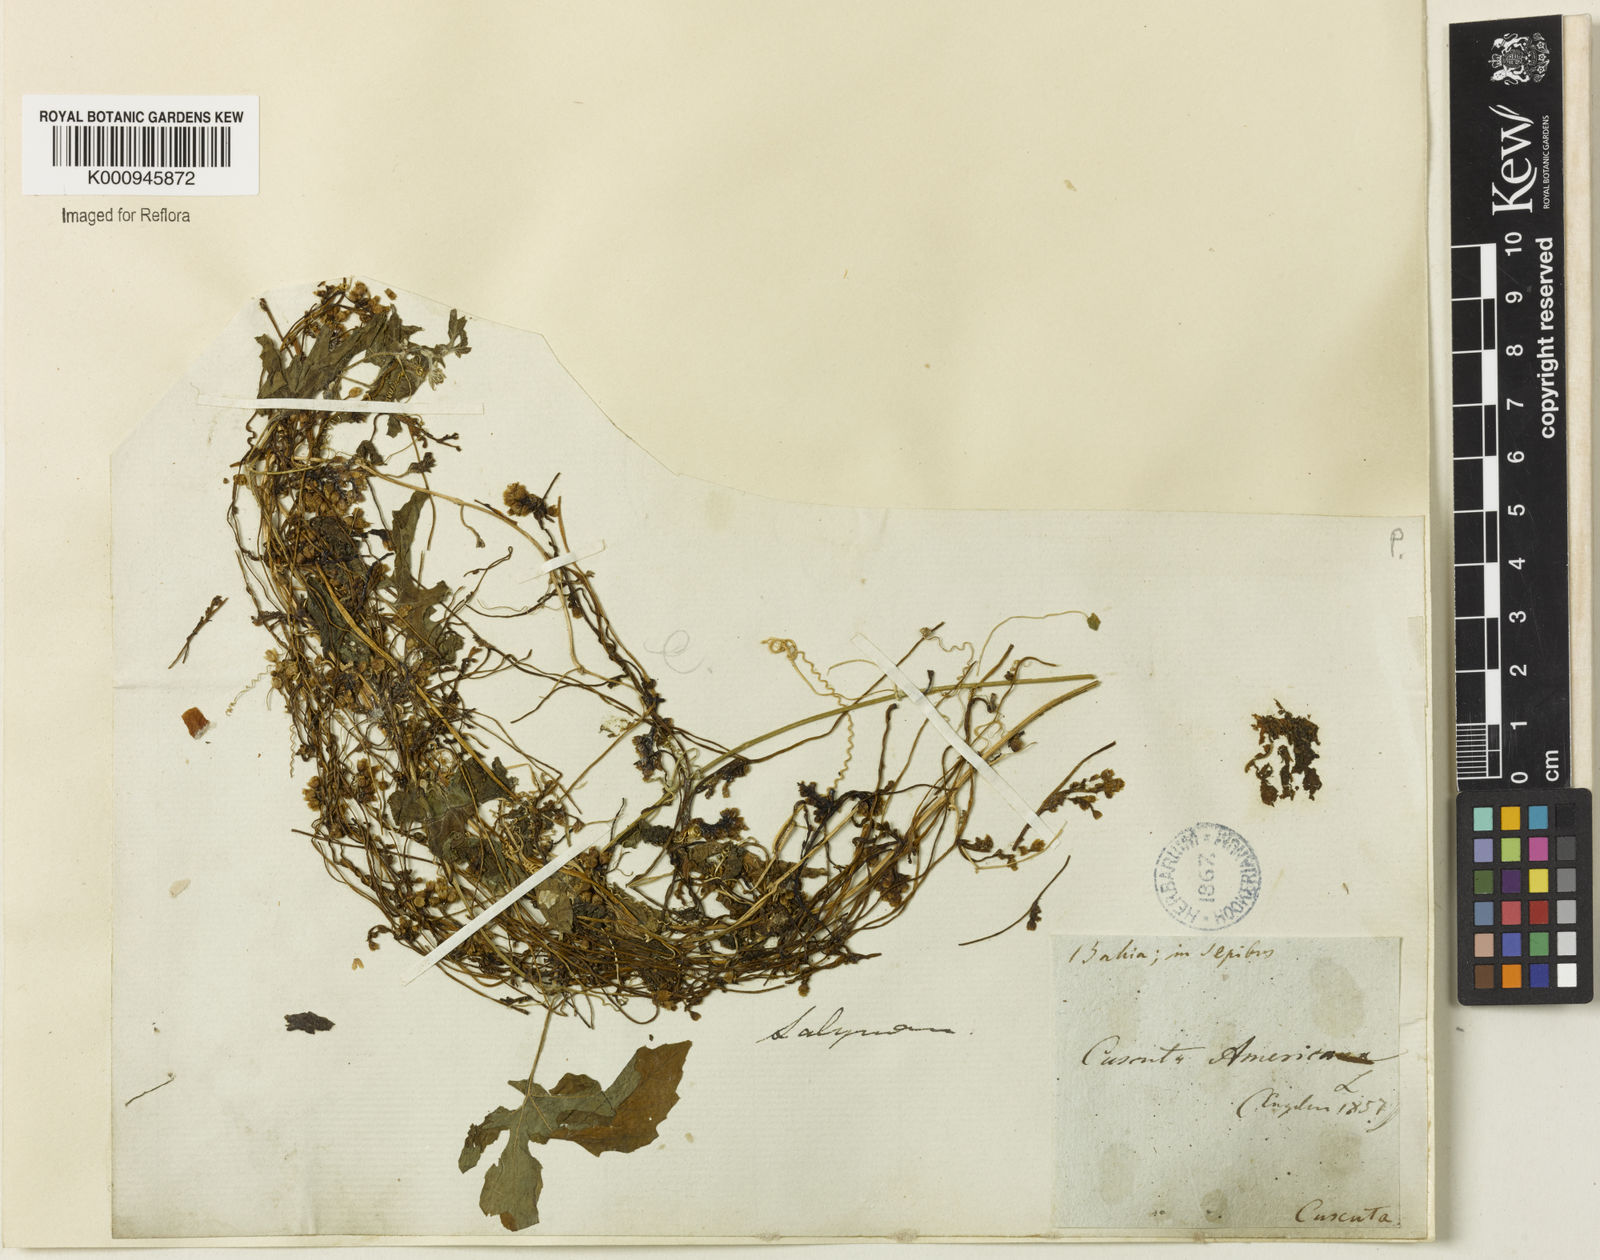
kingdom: Plantae
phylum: Tracheophyta
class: Magnoliopsida
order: Solanales
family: Convolvulaceae
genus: Cuscuta
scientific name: Cuscuta americana
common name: American dodder
